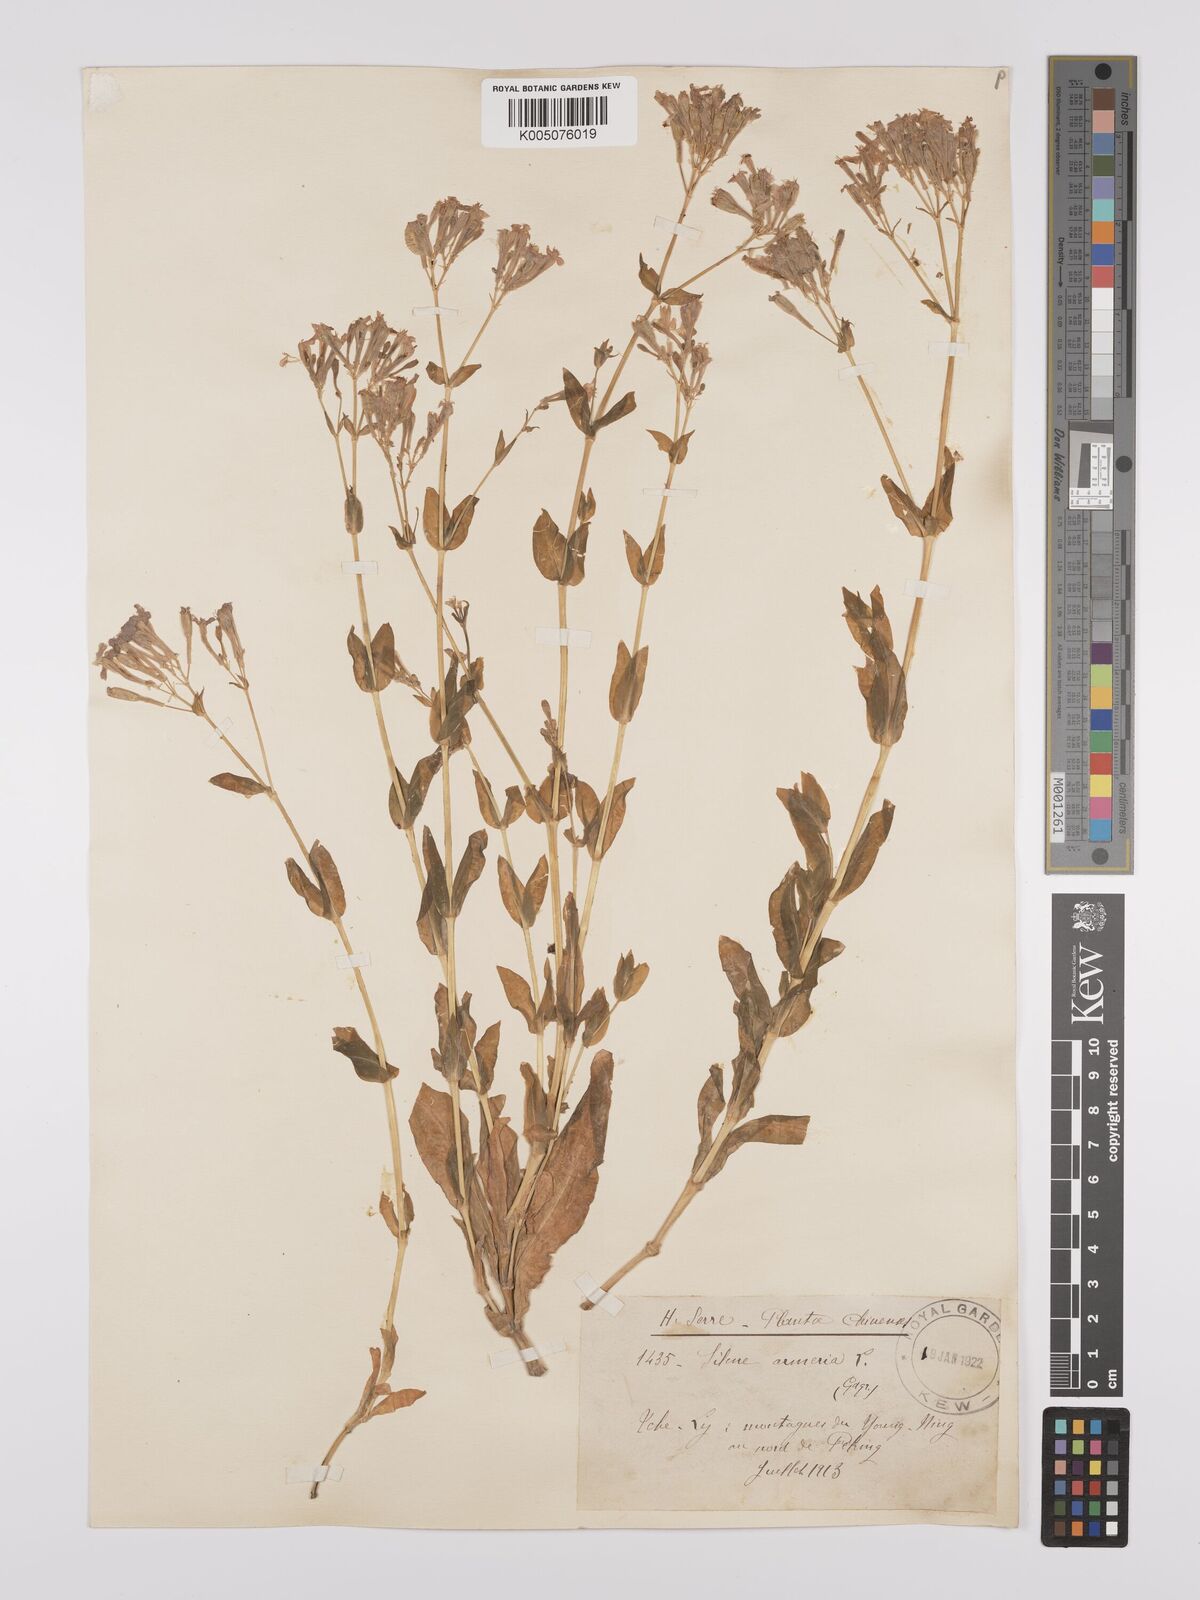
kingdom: Plantae
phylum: Tracheophyta
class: Magnoliopsida
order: Caryophyllales
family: Caryophyllaceae
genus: Silene
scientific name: Silene
